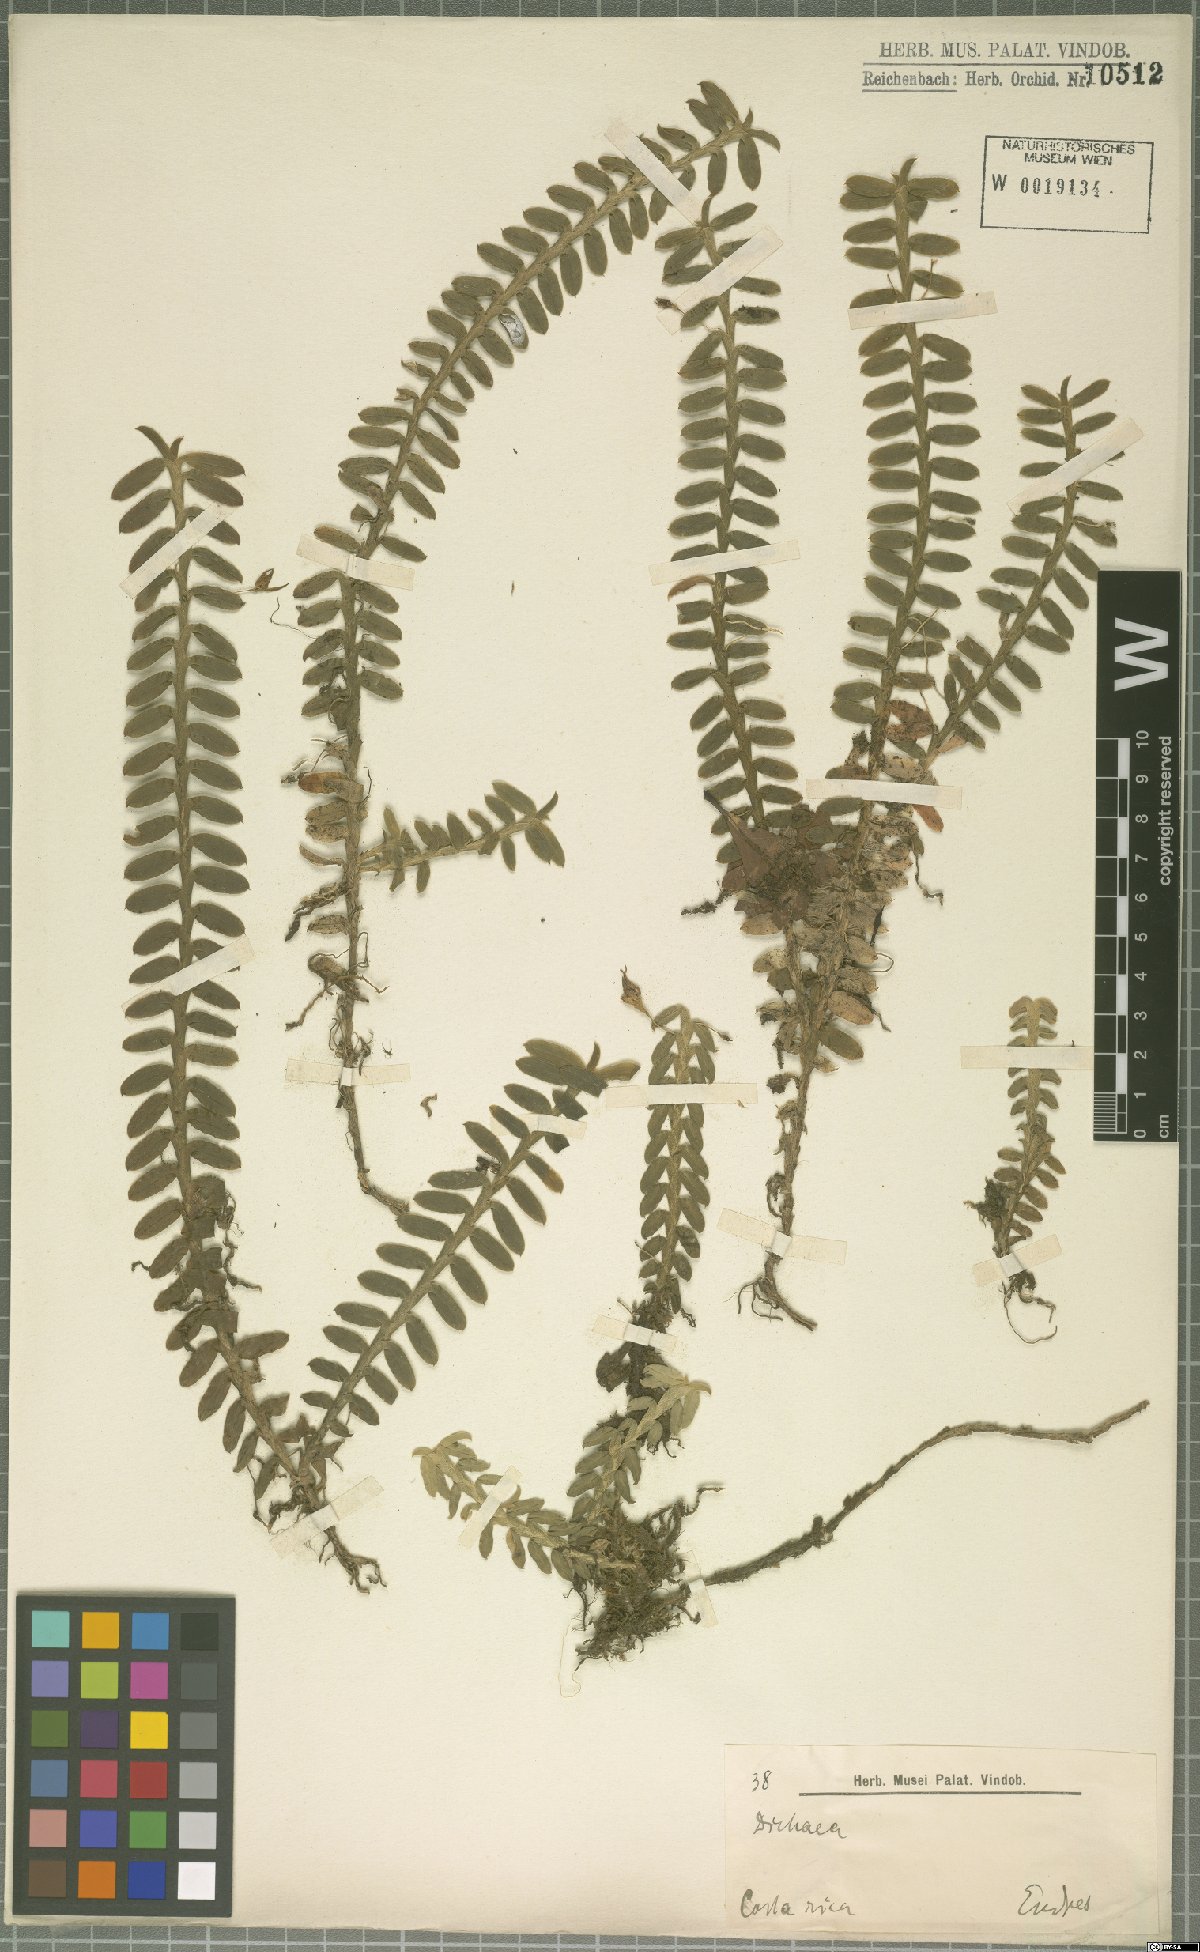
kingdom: Plantae
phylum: Tracheophyta
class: Liliopsida
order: Asparagales
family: Orchidaceae
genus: Dichaea
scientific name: Dichaea
